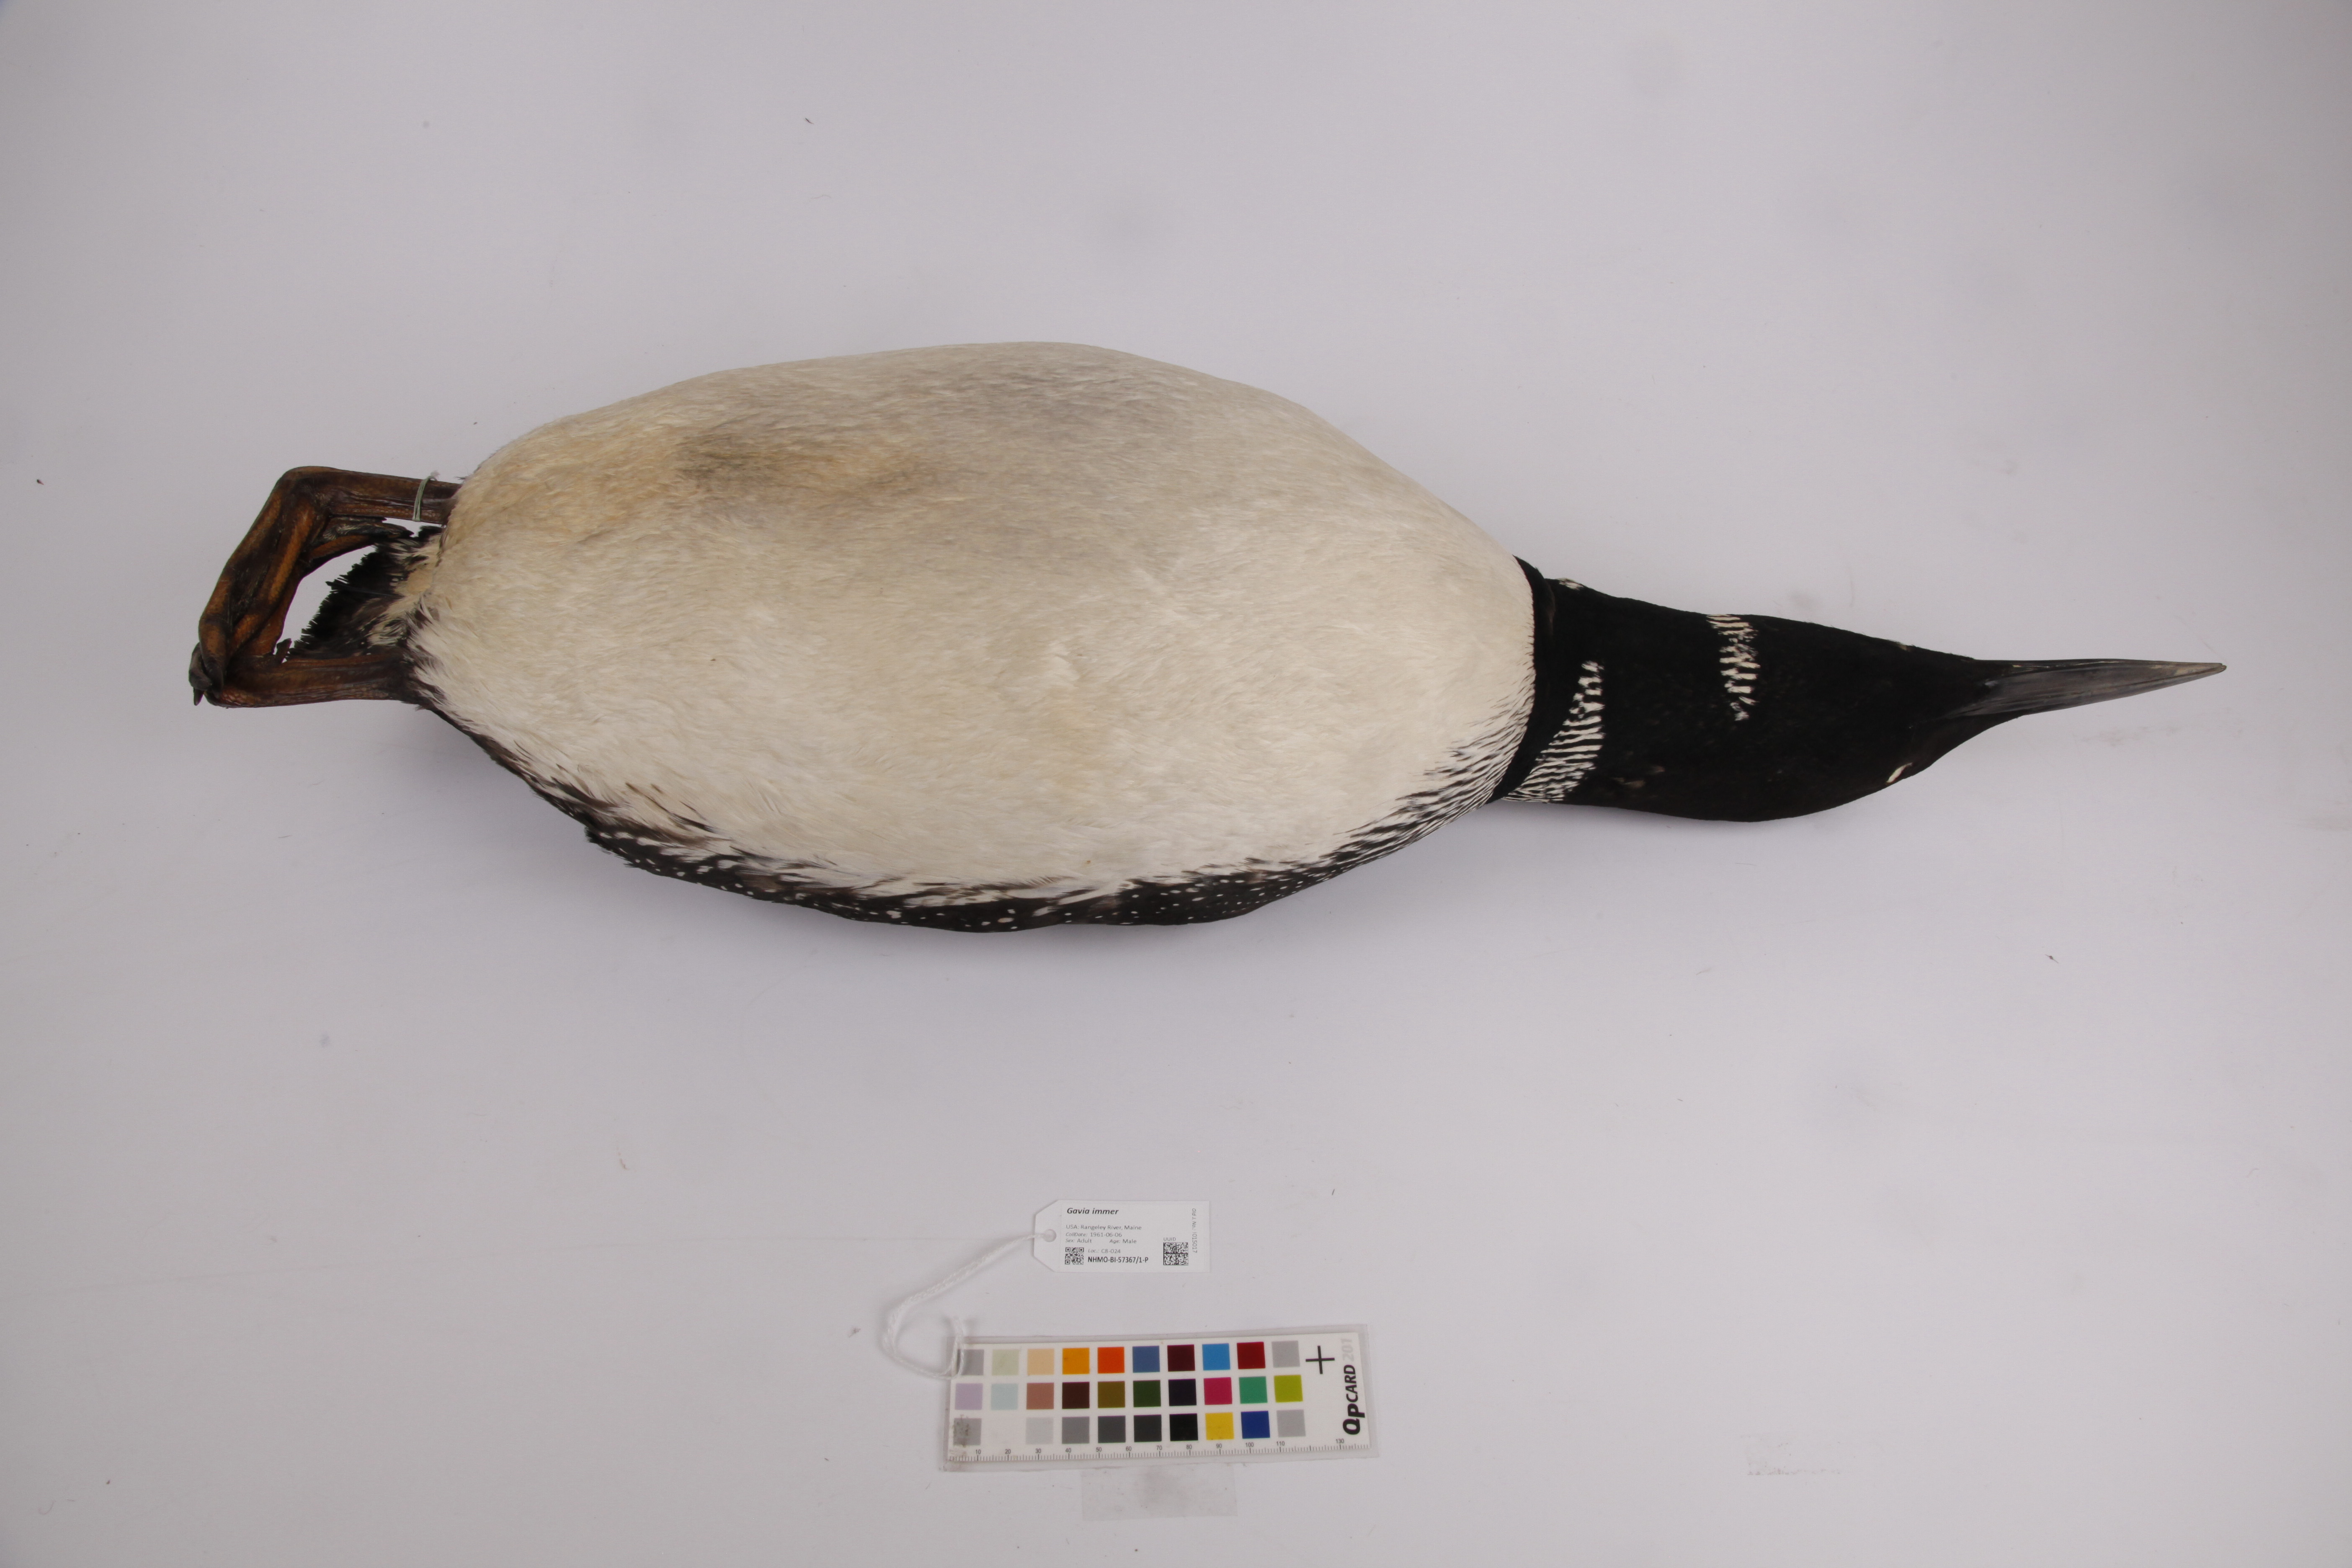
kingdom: Animalia
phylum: Chordata
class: Aves
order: Gaviiformes
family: Gaviidae
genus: Gavia
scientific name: Gavia immer
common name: Common loon
